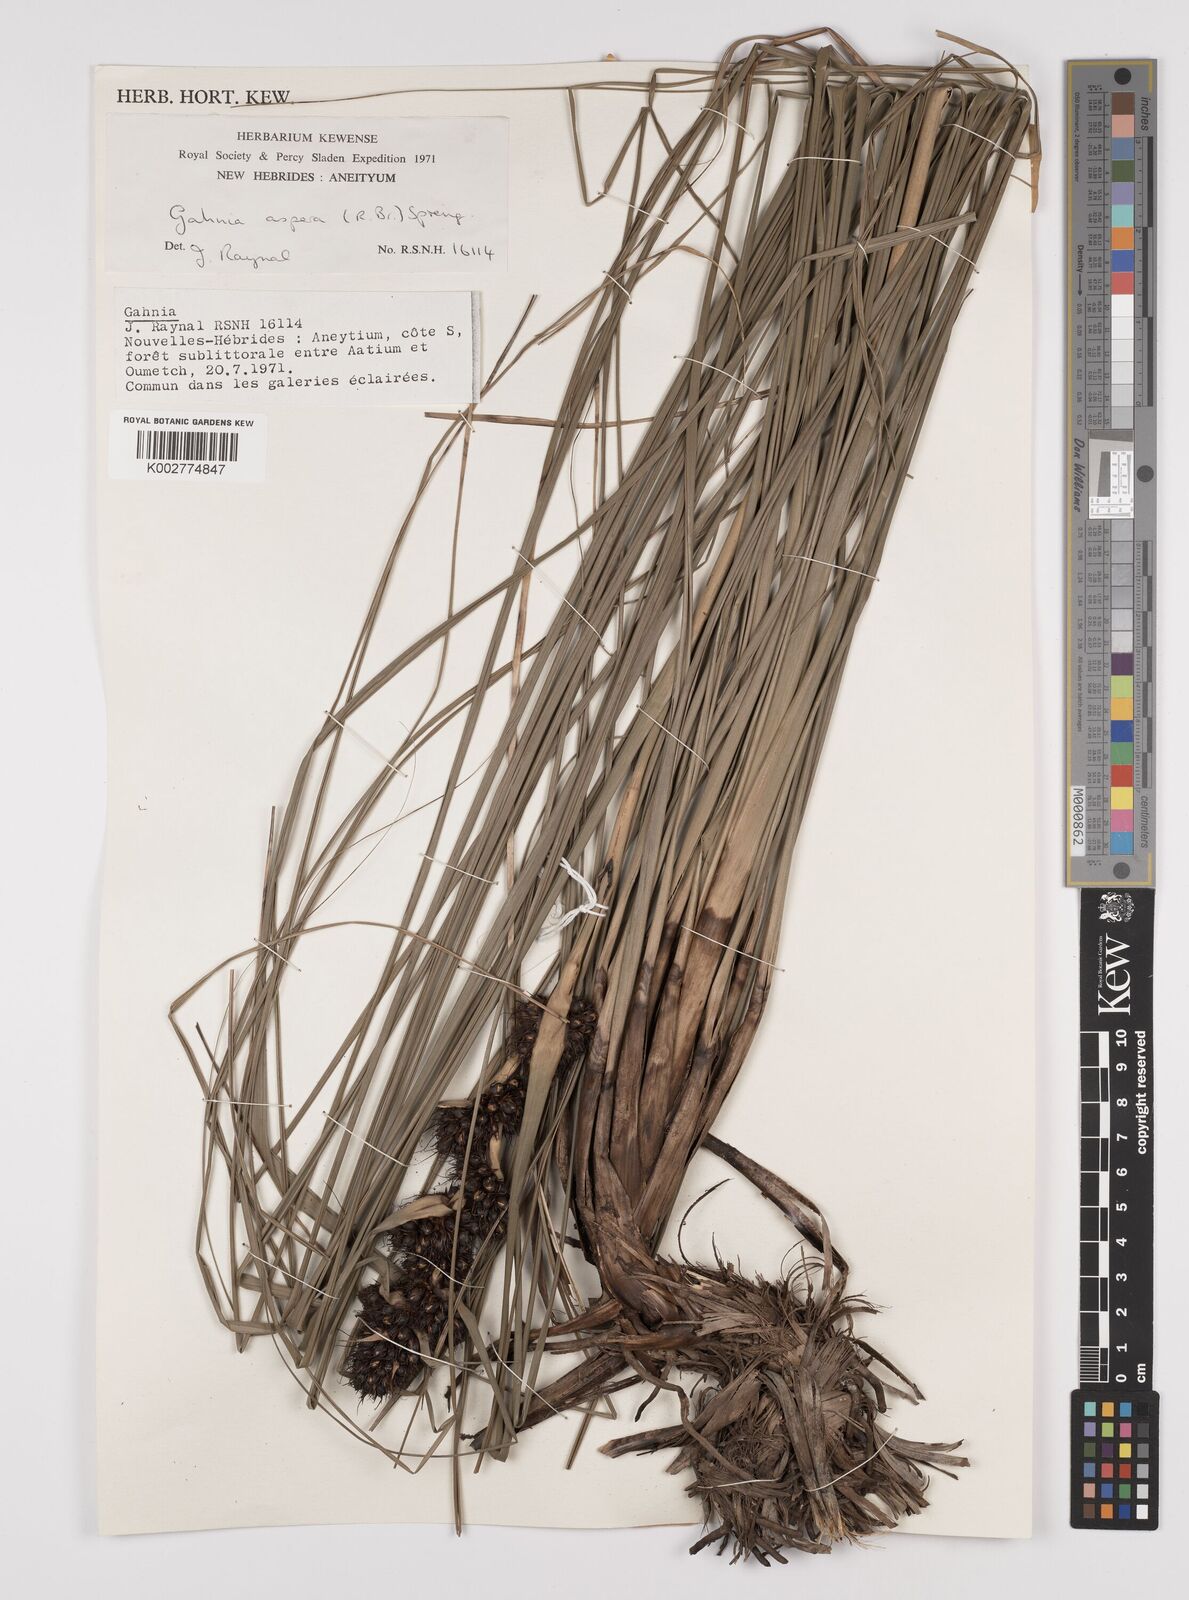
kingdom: Plantae
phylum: Tracheophyta
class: Liliopsida
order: Poales
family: Cyperaceae
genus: Gahnia
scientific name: Gahnia aspera
